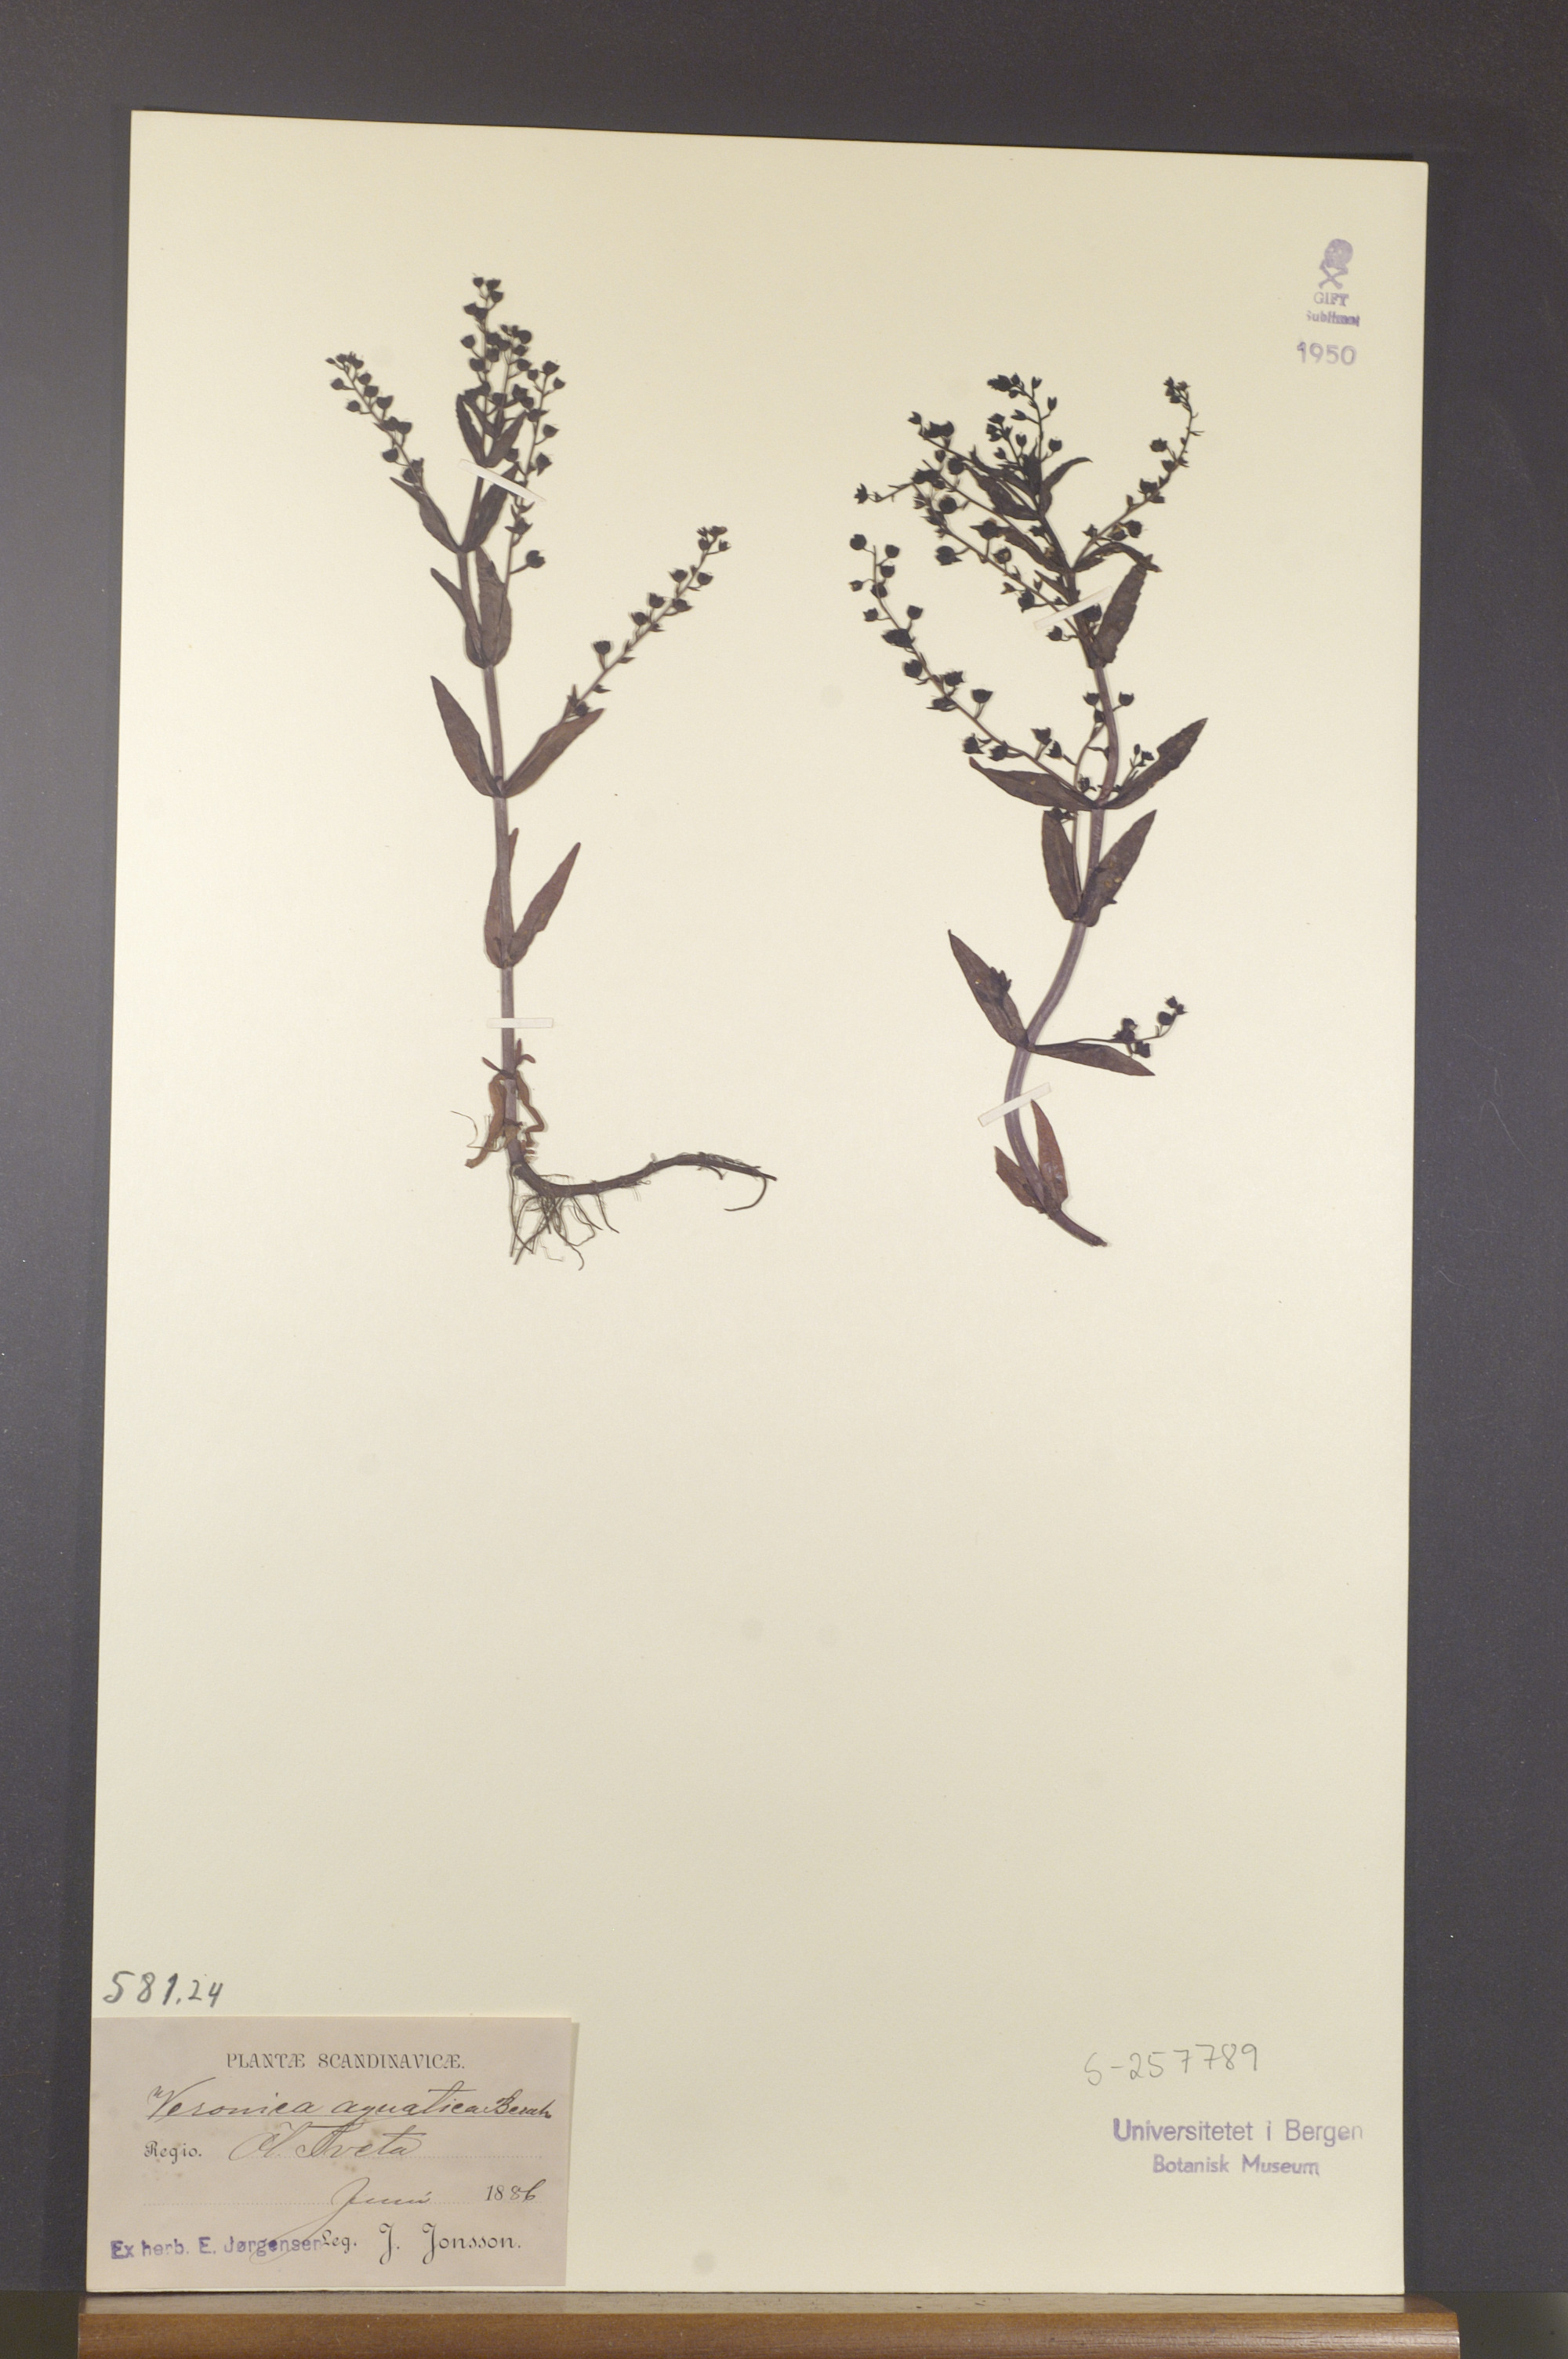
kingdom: Plantae
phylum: Tracheophyta
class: Magnoliopsida
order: Lamiales
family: Plantaginaceae
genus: Veronica
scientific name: Veronica catenata
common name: Pink water-speedwell
